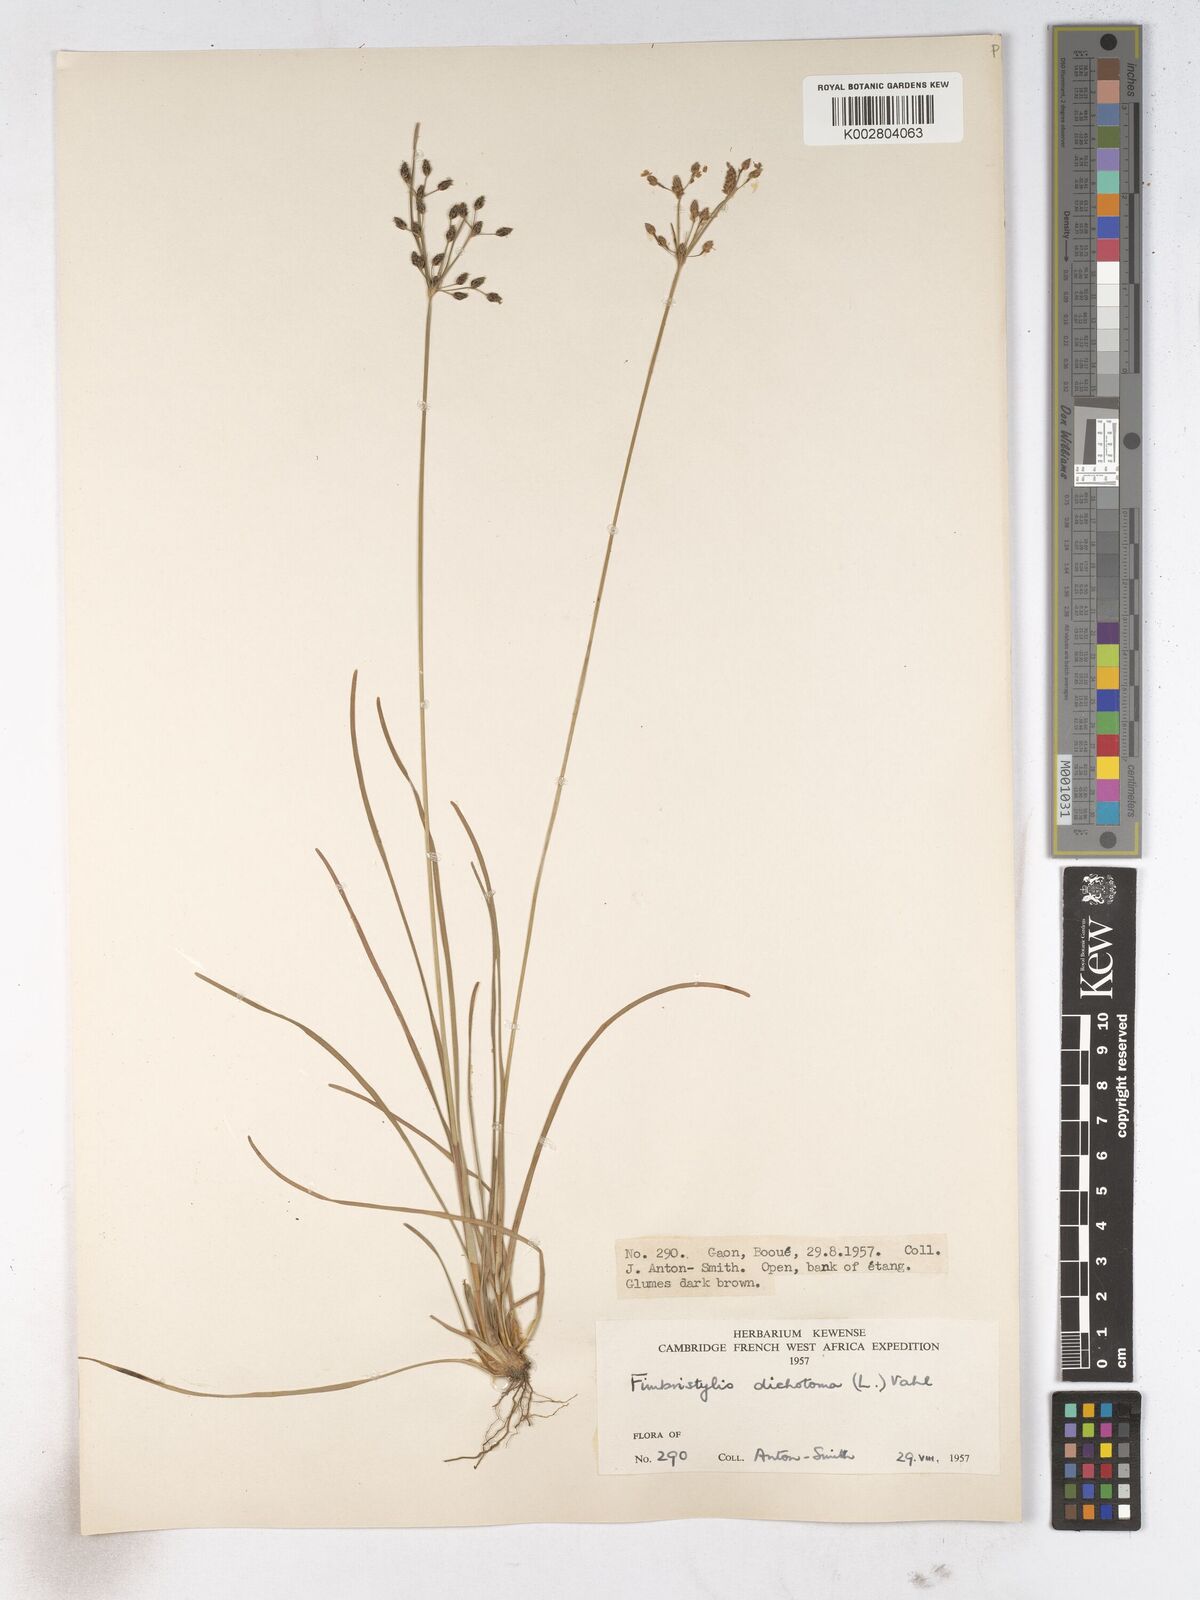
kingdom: Plantae
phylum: Tracheophyta
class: Liliopsida
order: Poales
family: Cyperaceae
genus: Fimbristylis
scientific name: Fimbristylis dichotoma
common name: Forked fimbry
